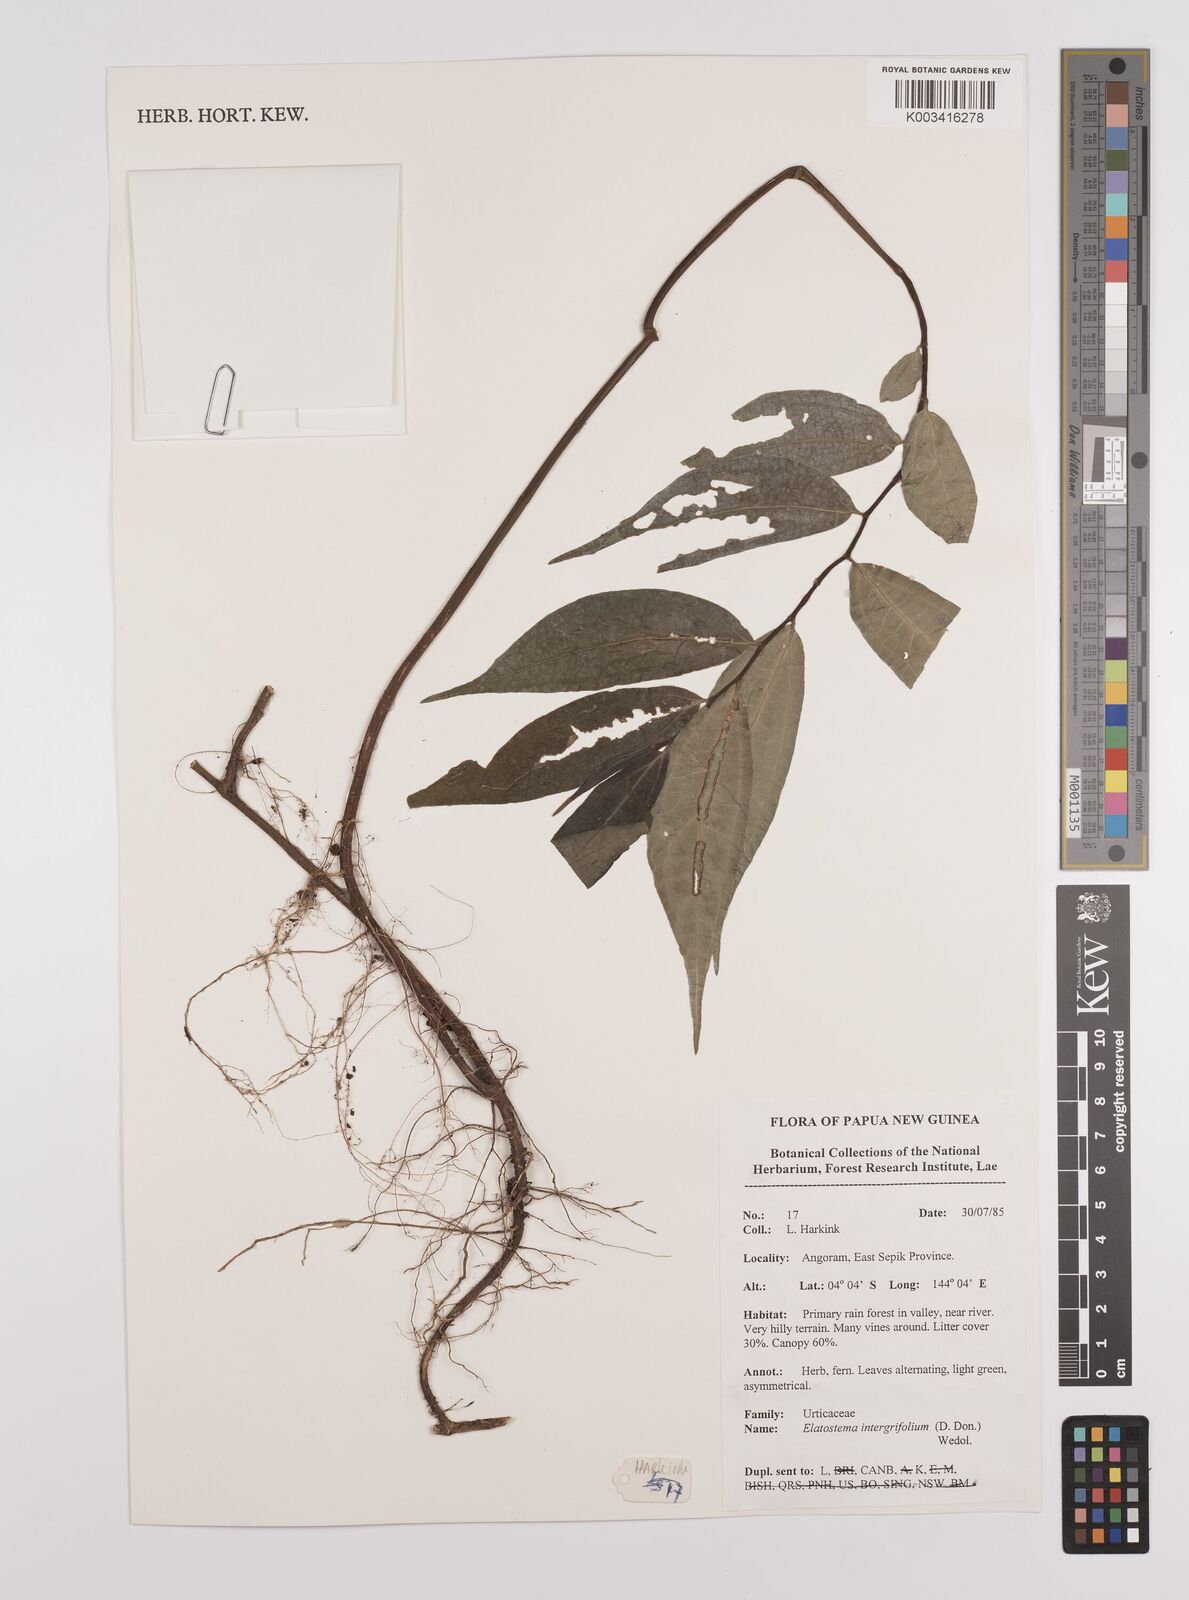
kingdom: Plantae
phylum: Tracheophyta
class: Magnoliopsida
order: Rosales
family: Urticaceae
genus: Elatostema
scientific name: Elatostema integrifolium
